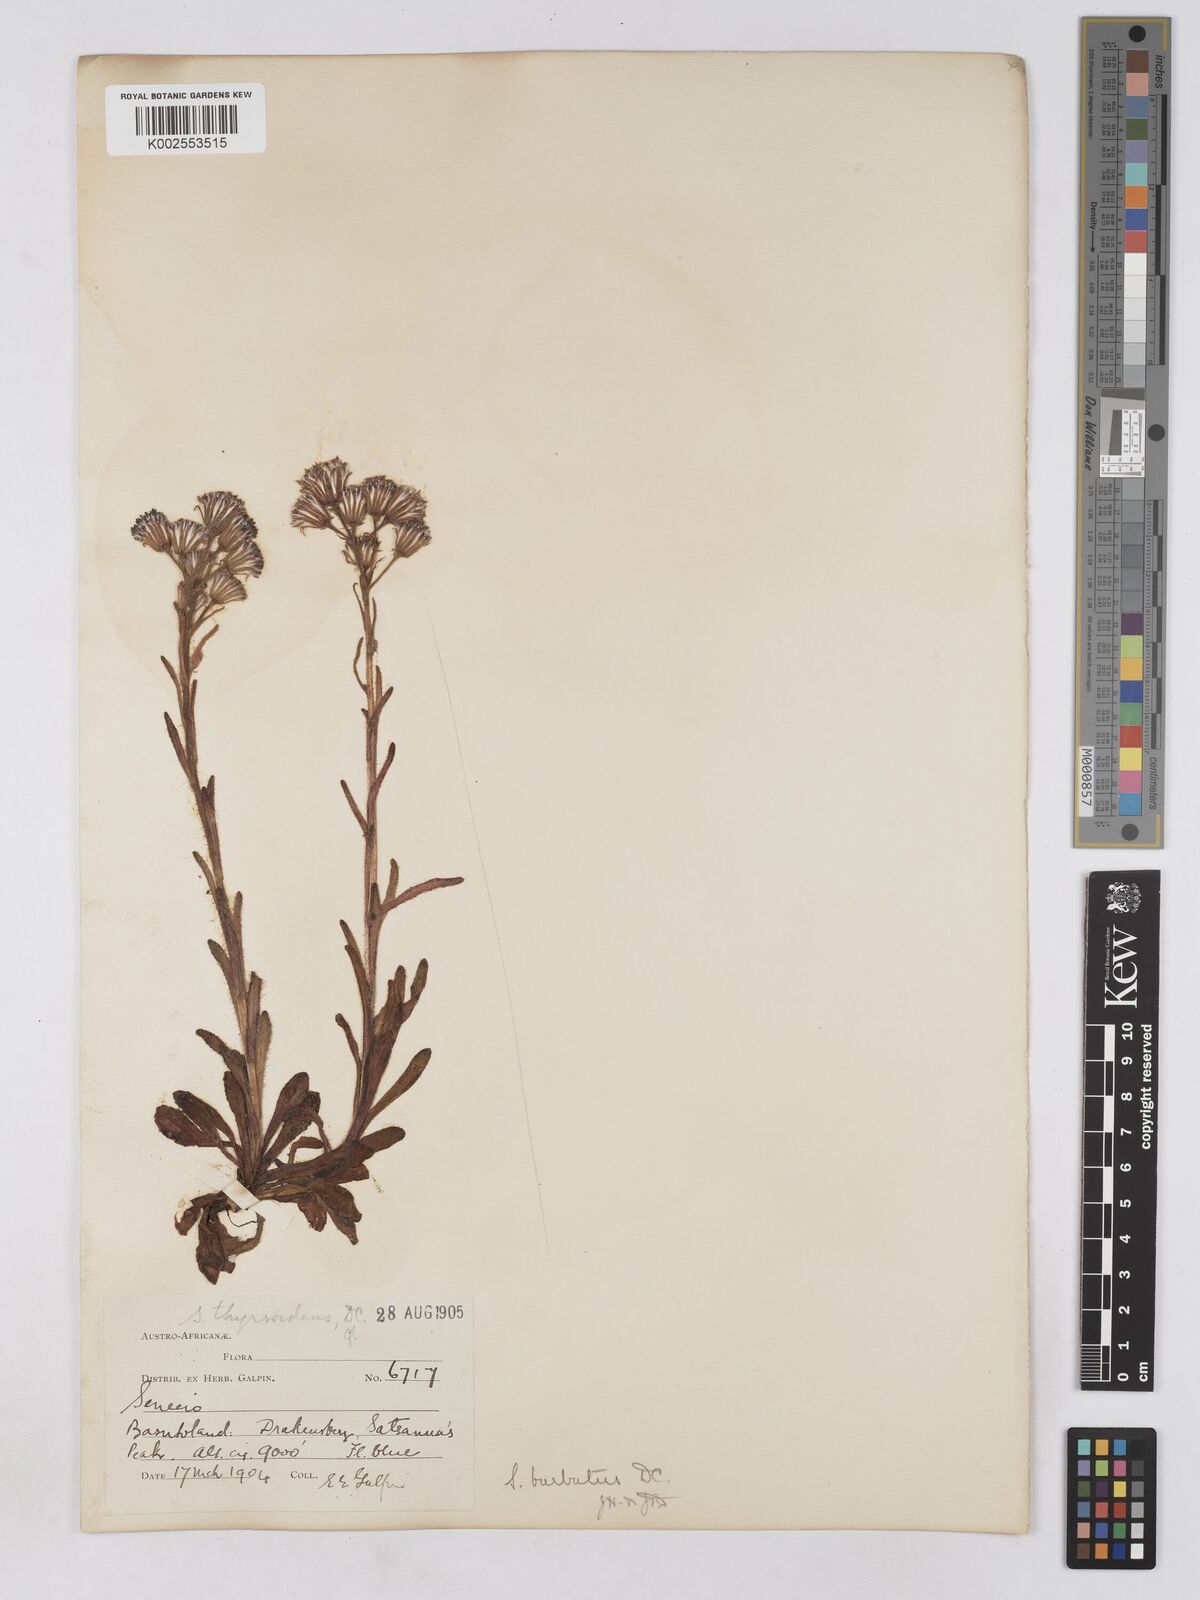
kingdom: Plantae
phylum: Tracheophyta
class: Magnoliopsida
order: Asterales
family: Asteraceae
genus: Senecio
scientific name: Senecio barbatus
